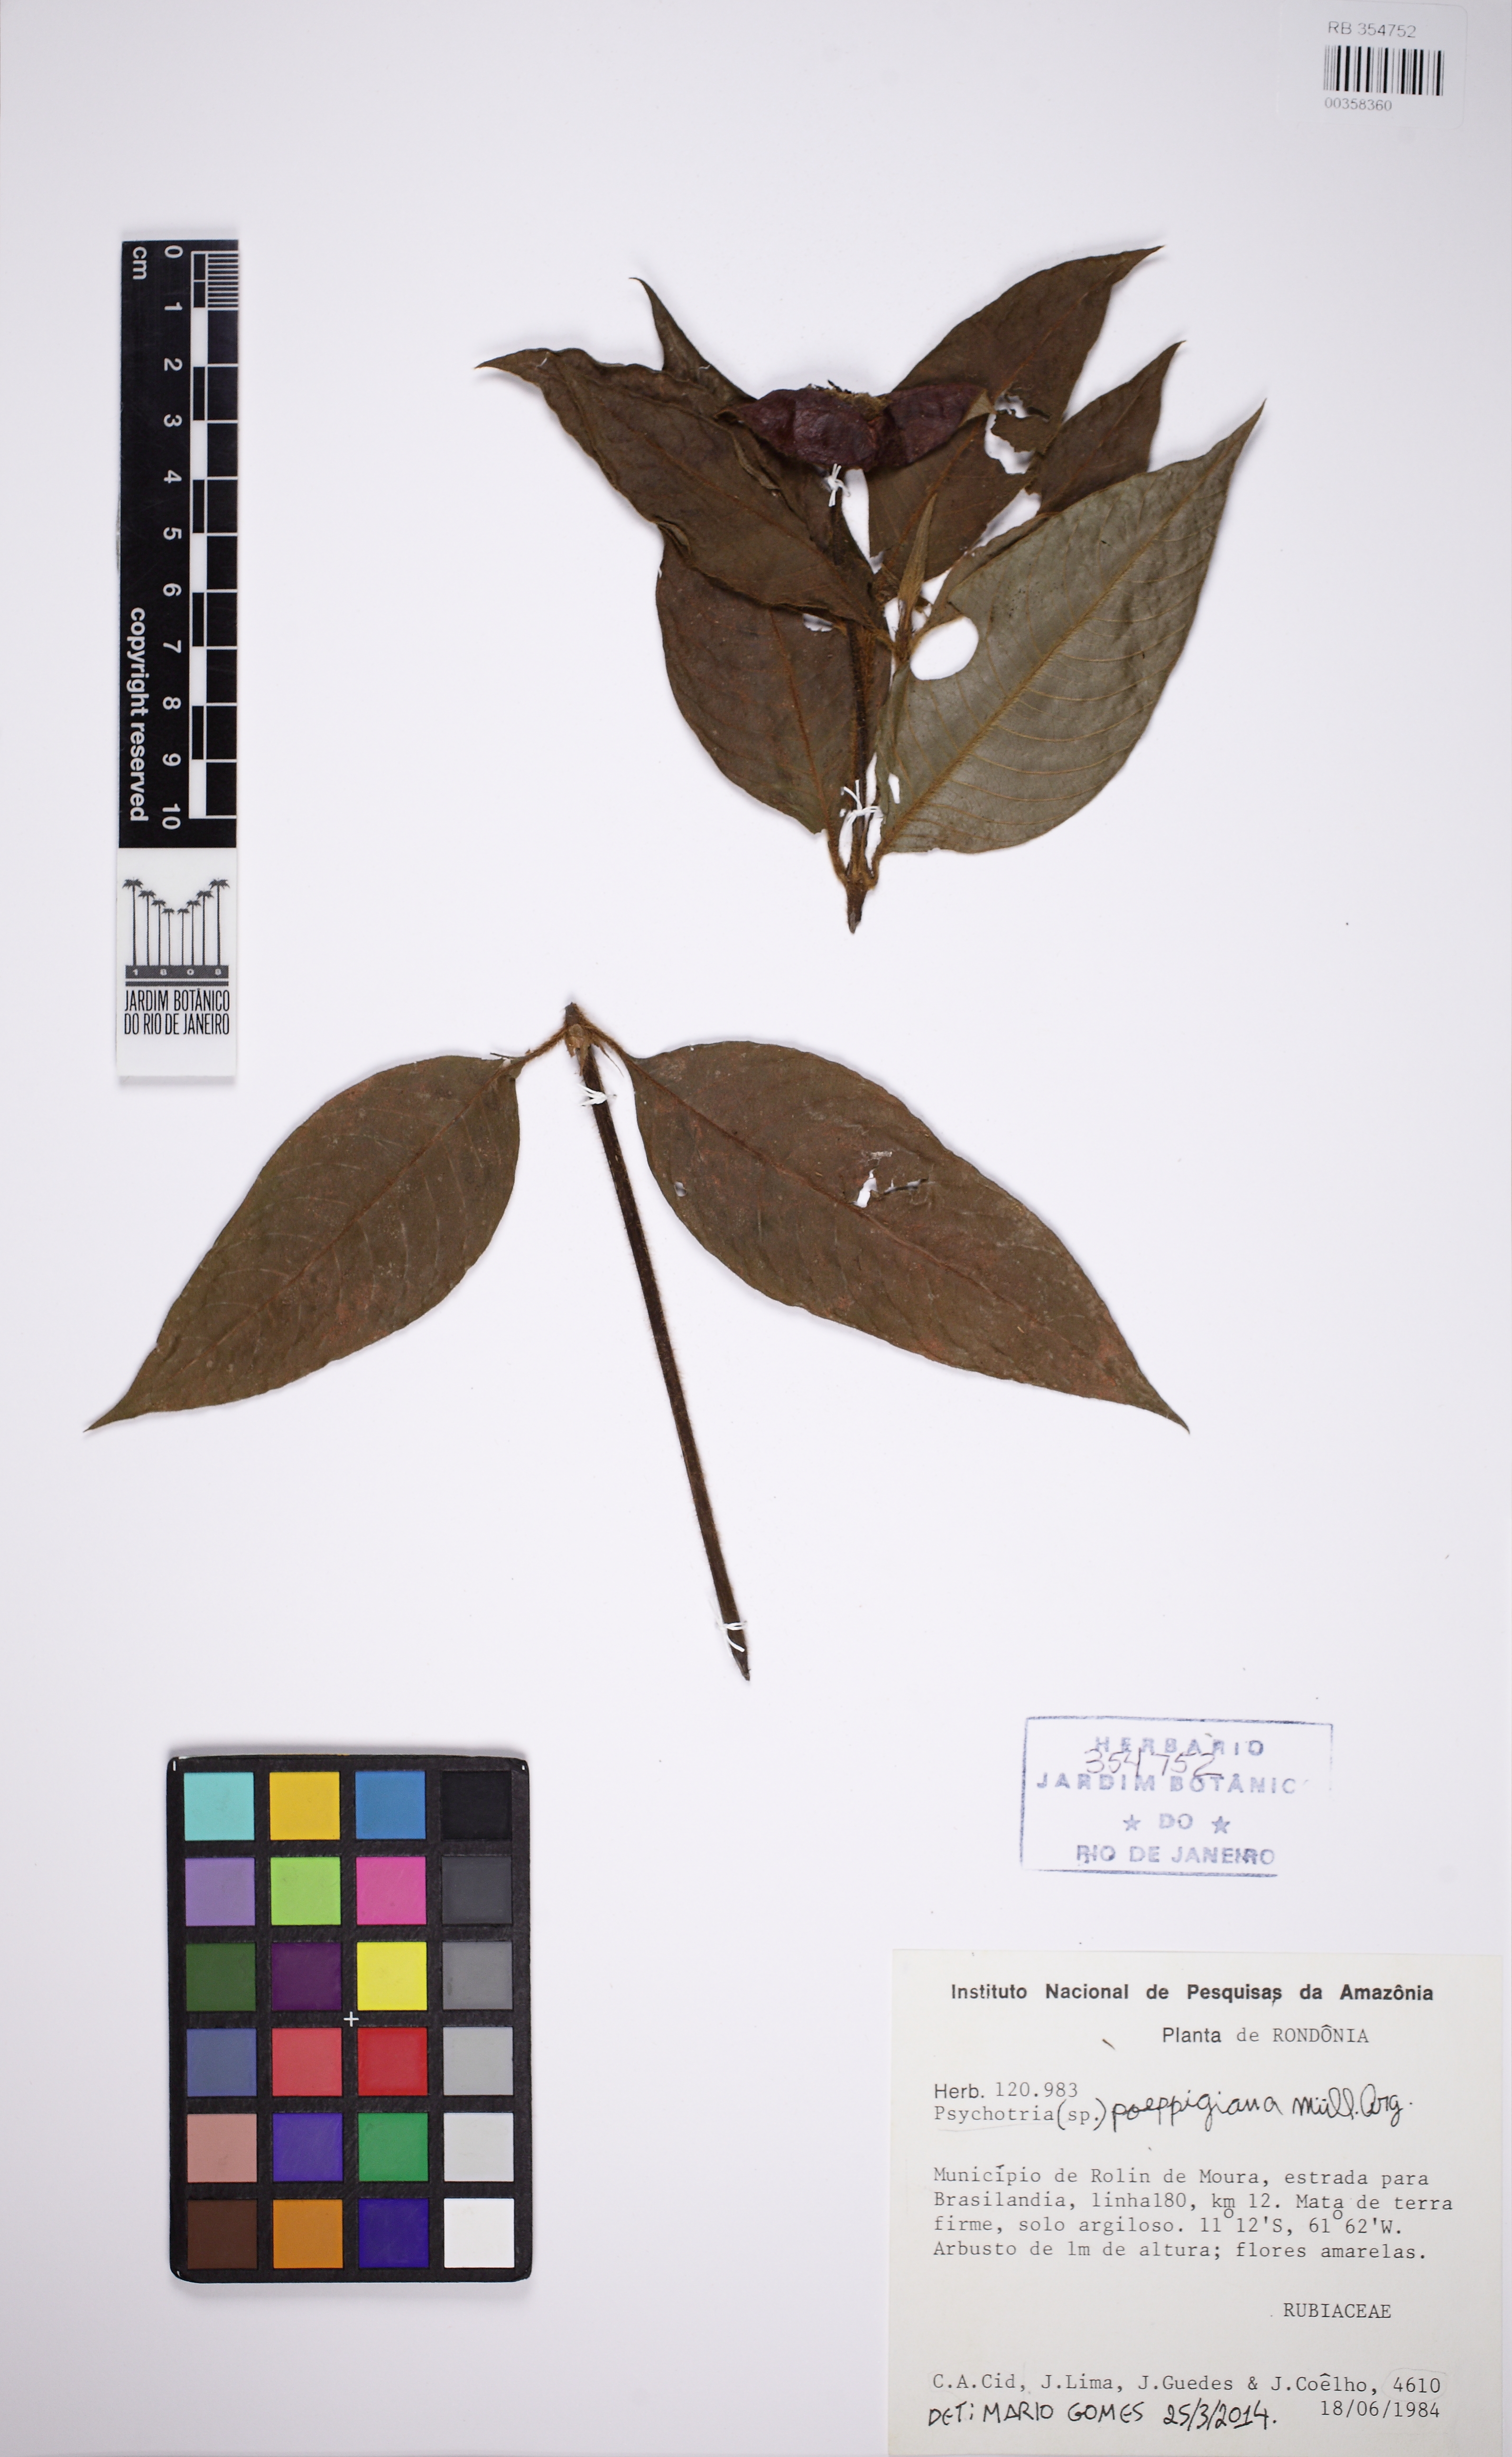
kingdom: Plantae
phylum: Tracheophyta
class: Magnoliopsida
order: Gentianales
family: Rubiaceae
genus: Palicourea
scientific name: Palicourea tomentosa
